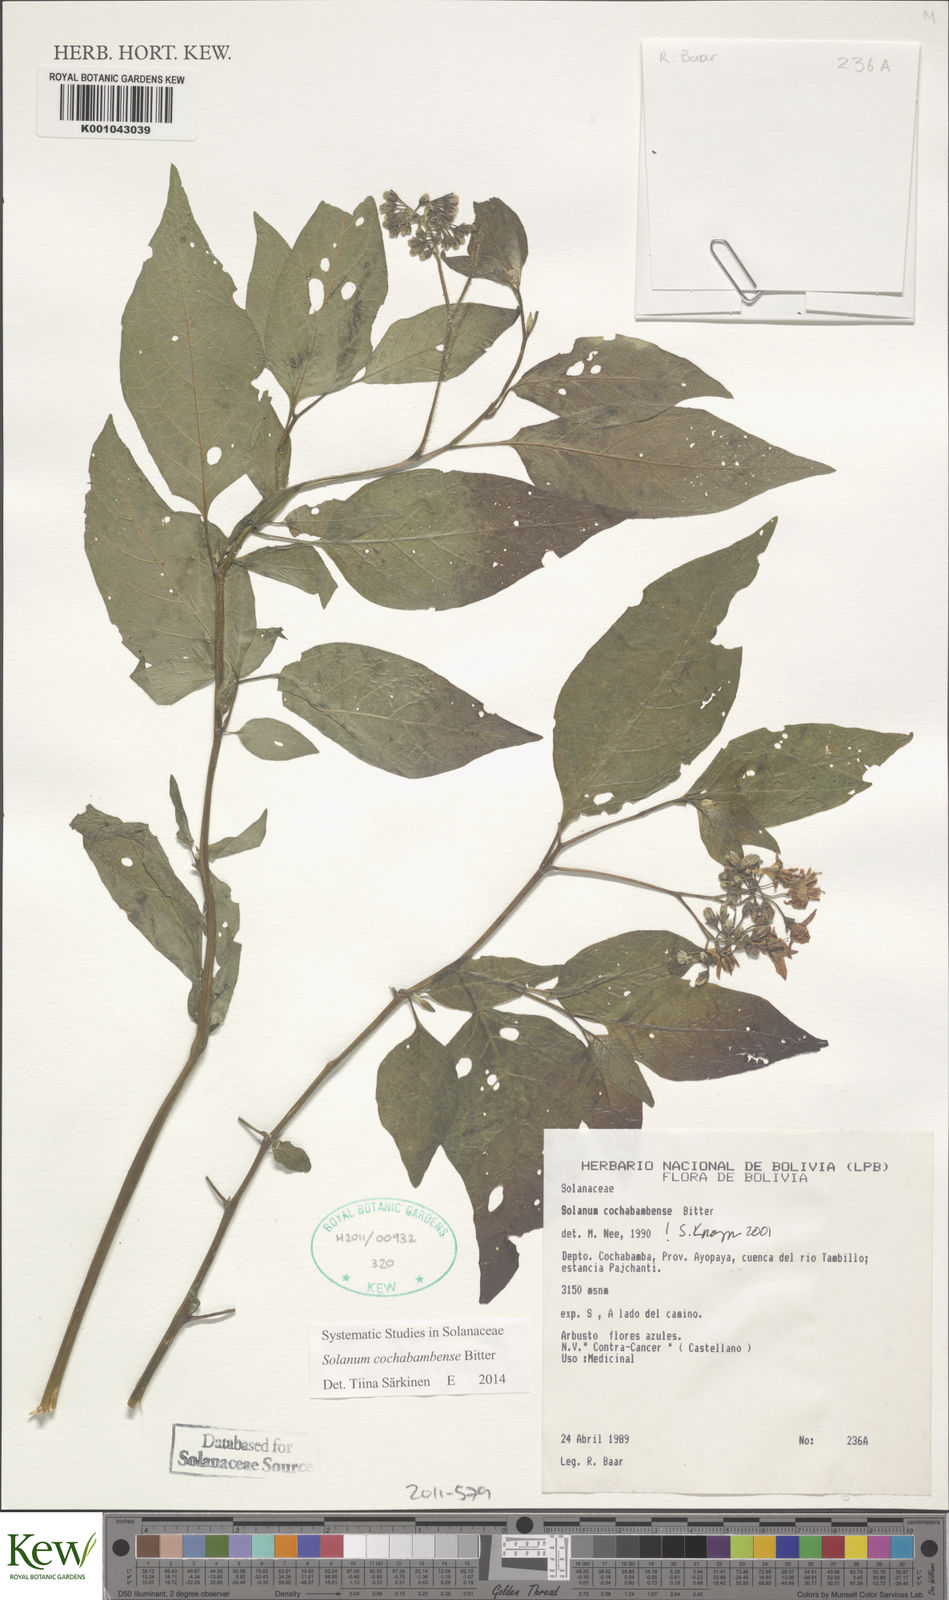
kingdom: Plantae
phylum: Tracheophyta
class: Magnoliopsida
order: Solanales
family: Solanaceae
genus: Solanum
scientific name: Solanum probolospermum
